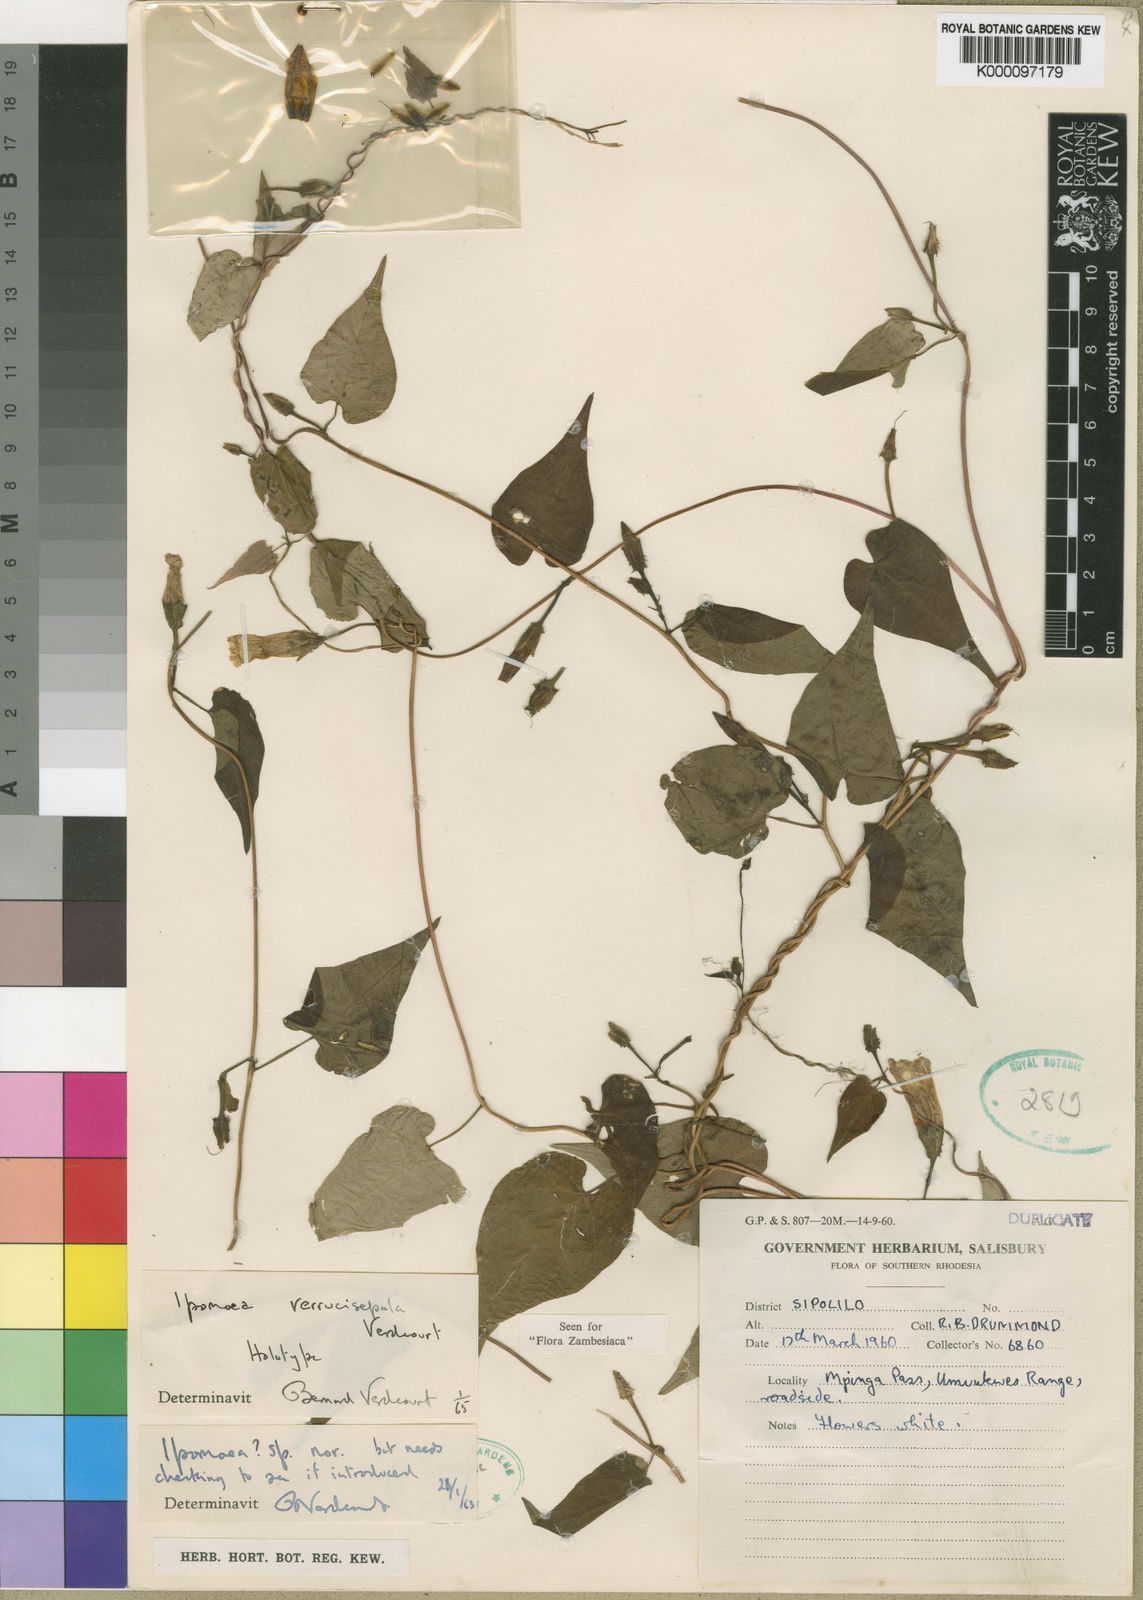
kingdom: Plantae
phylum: Tracheophyta
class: Magnoliopsida
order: Solanales
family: Convolvulaceae
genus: Ipomoea
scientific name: Ipomoea verrucisepala
